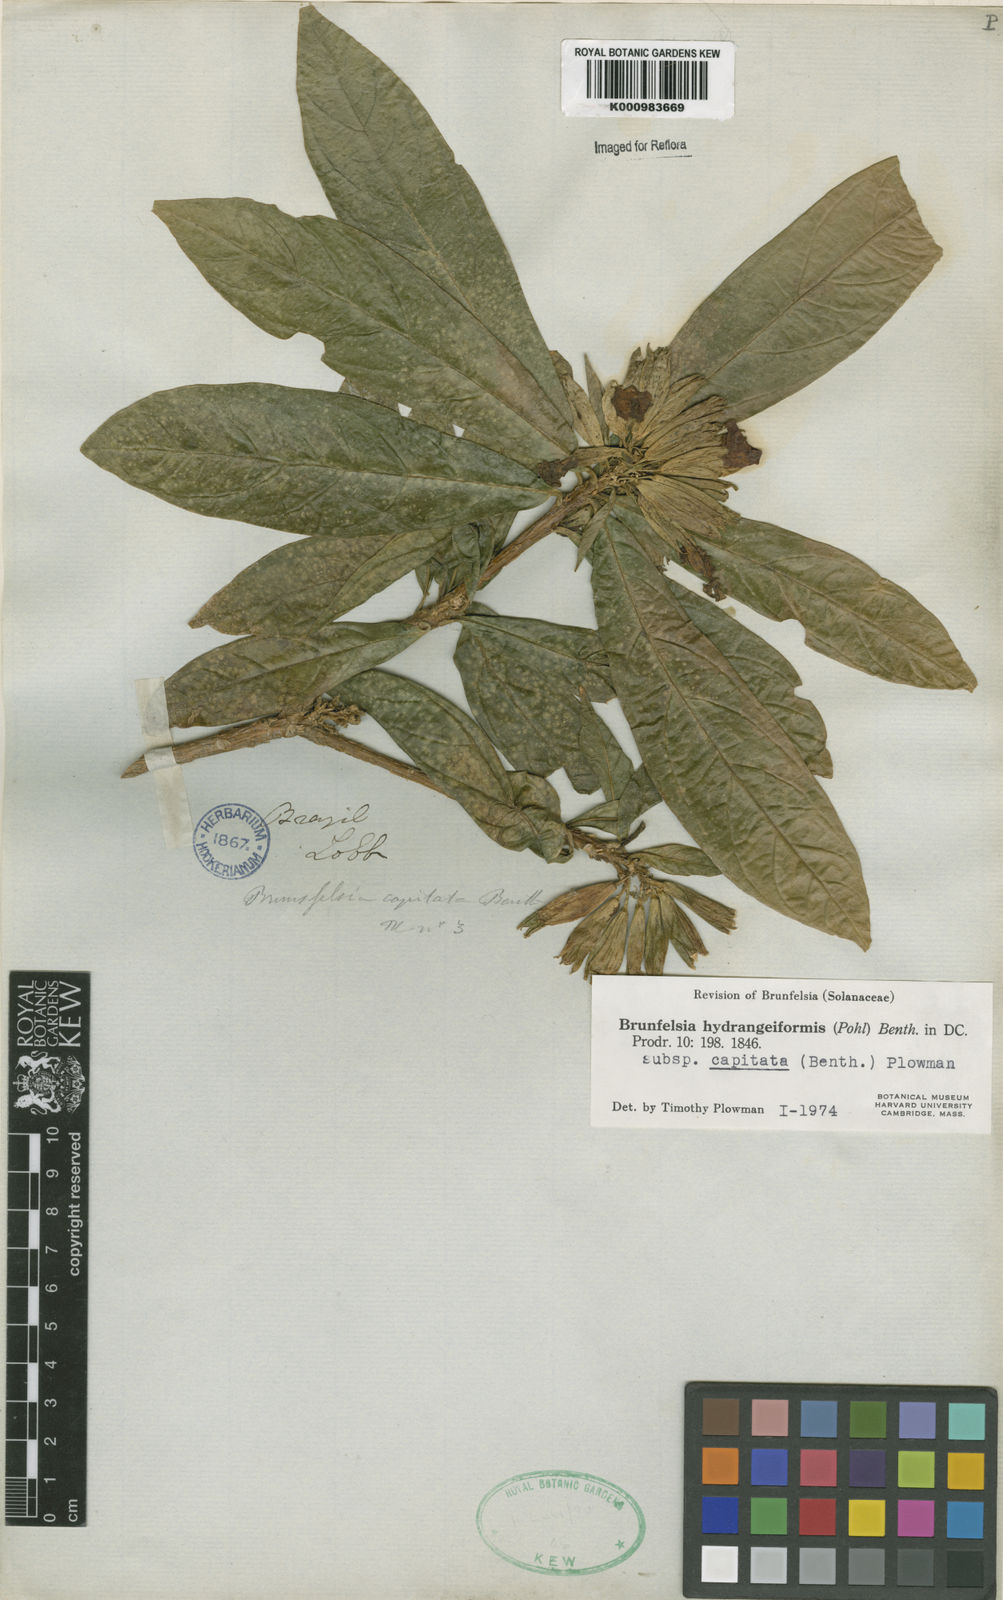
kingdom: Plantae
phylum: Tracheophyta
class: Magnoliopsida
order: Solanales
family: Solanaceae
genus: Solanum
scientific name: Solanum
